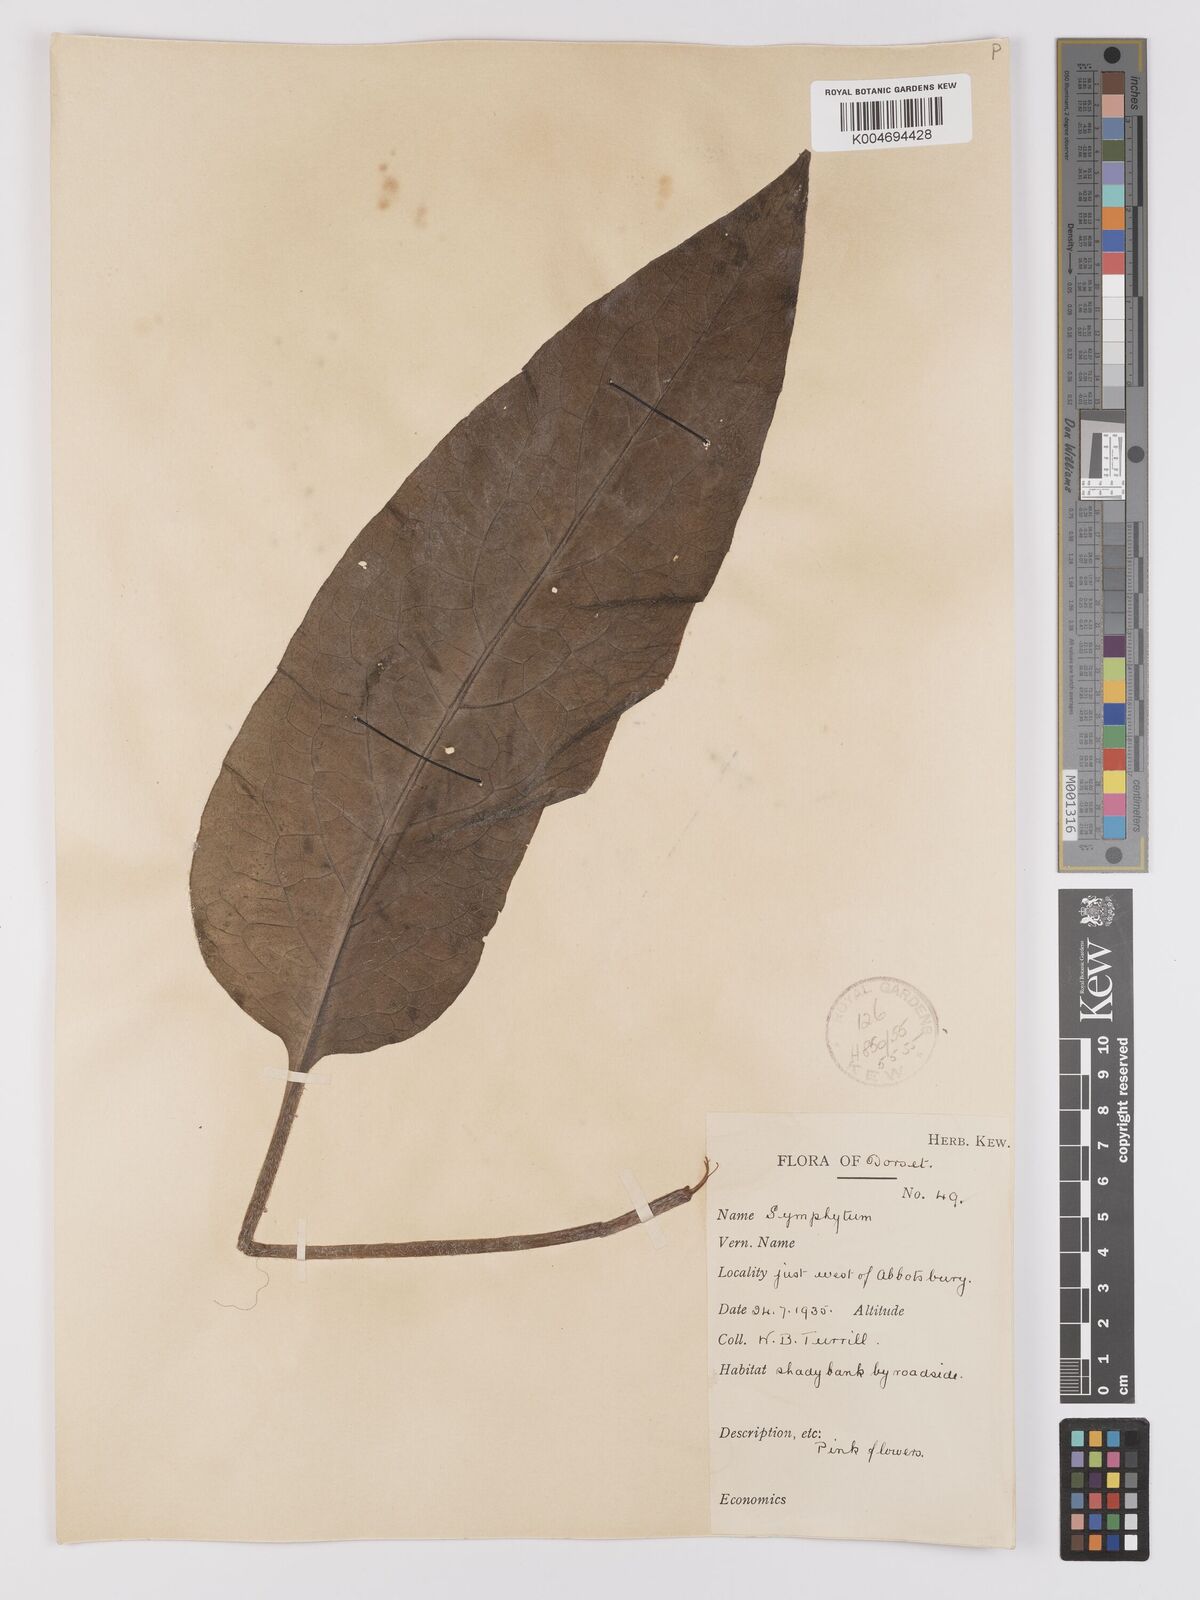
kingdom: Plantae
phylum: Tracheophyta
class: Magnoliopsida
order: Boraginales
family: Boraginaceae
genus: Symphytum
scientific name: Symphytum officinale
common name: Common comfrey
